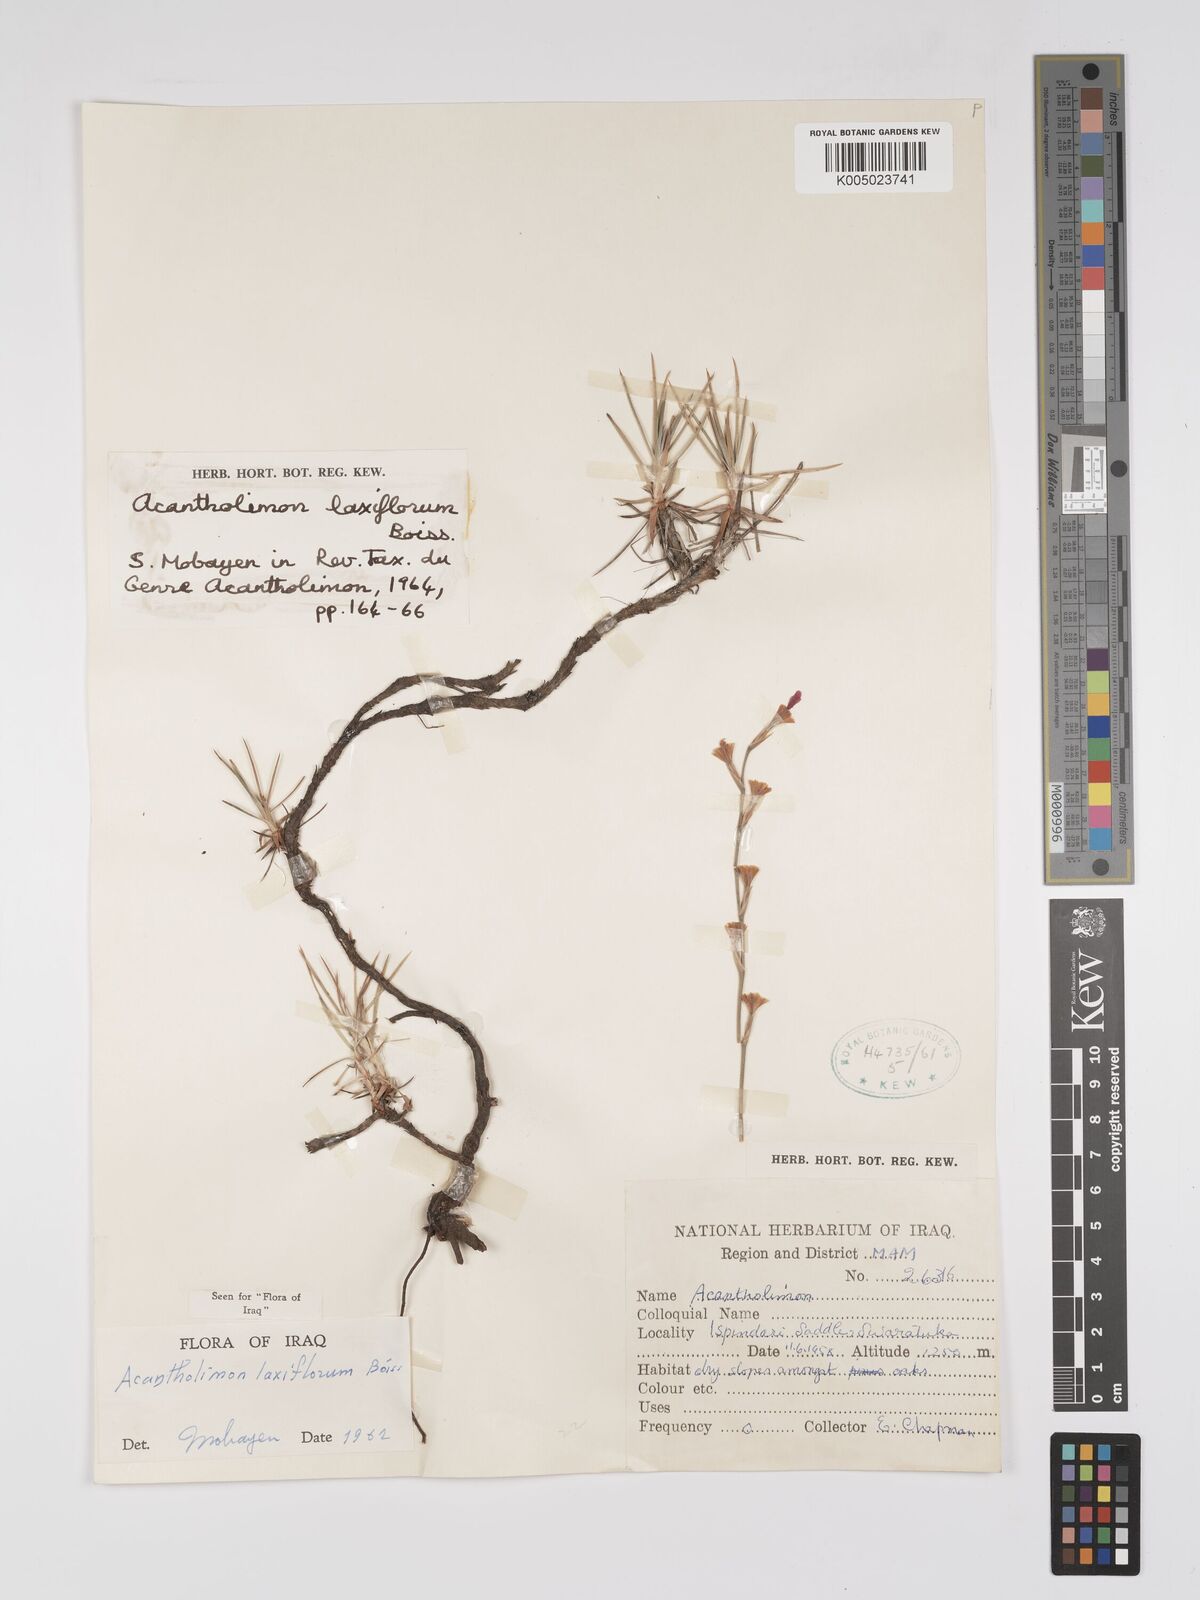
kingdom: Plantae
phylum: Tracheophyta
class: Magnoliopsida
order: Caryophyllales
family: Plumbaginaceae
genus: Acantholimon
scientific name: Acantholimon laxiflorum
